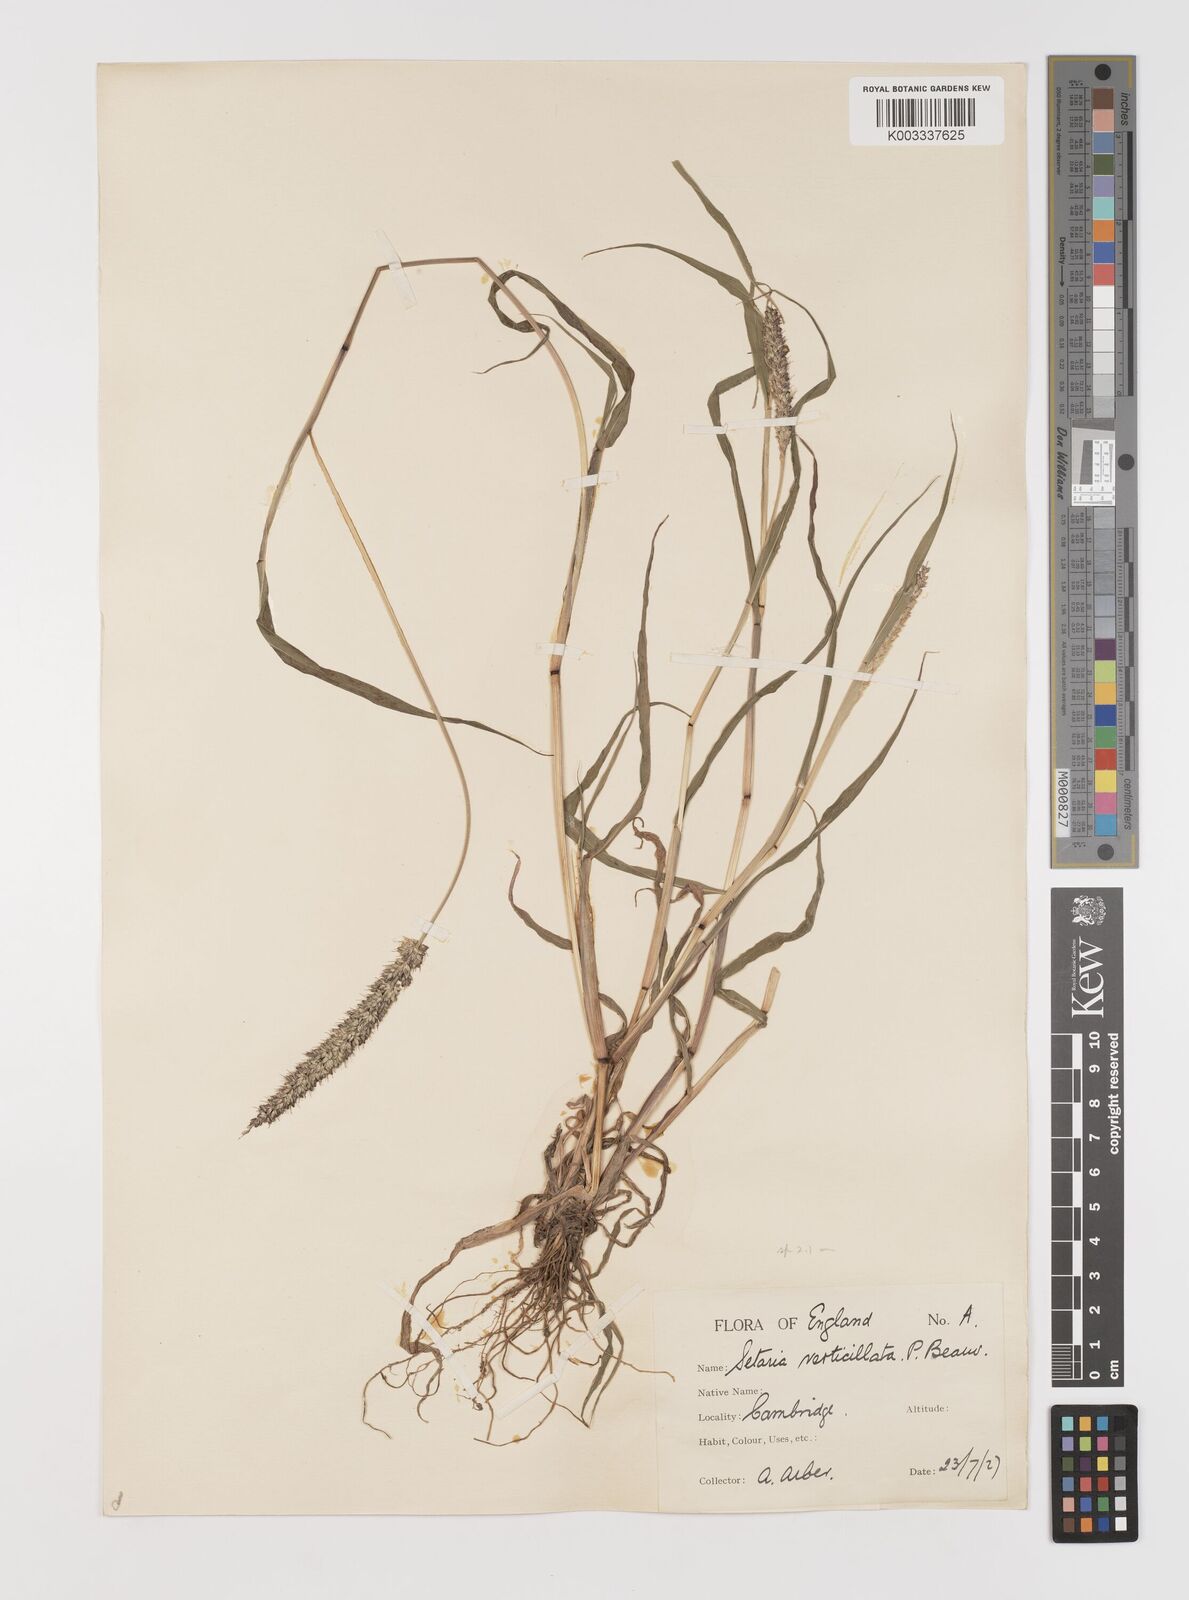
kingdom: Plantae
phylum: Tracheophyta
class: Liliopsida
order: Poales
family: Poaceae
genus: Setaria
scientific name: Setaria verticillata
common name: Hooked bristlegrass
